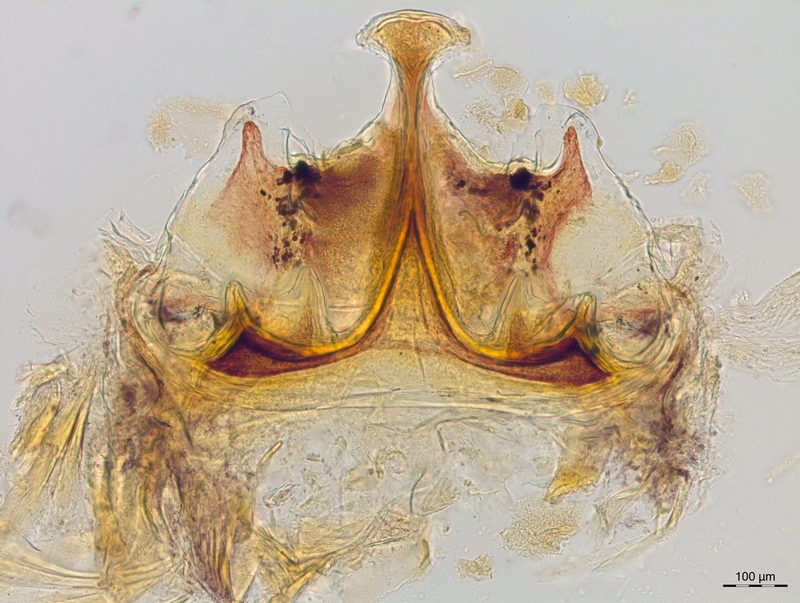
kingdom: Animalia
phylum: Arthropoda
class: Diplopoda
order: Chordeumatida
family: Craspedosomatidae
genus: Craspedosoma
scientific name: Craspedosoma slavum
